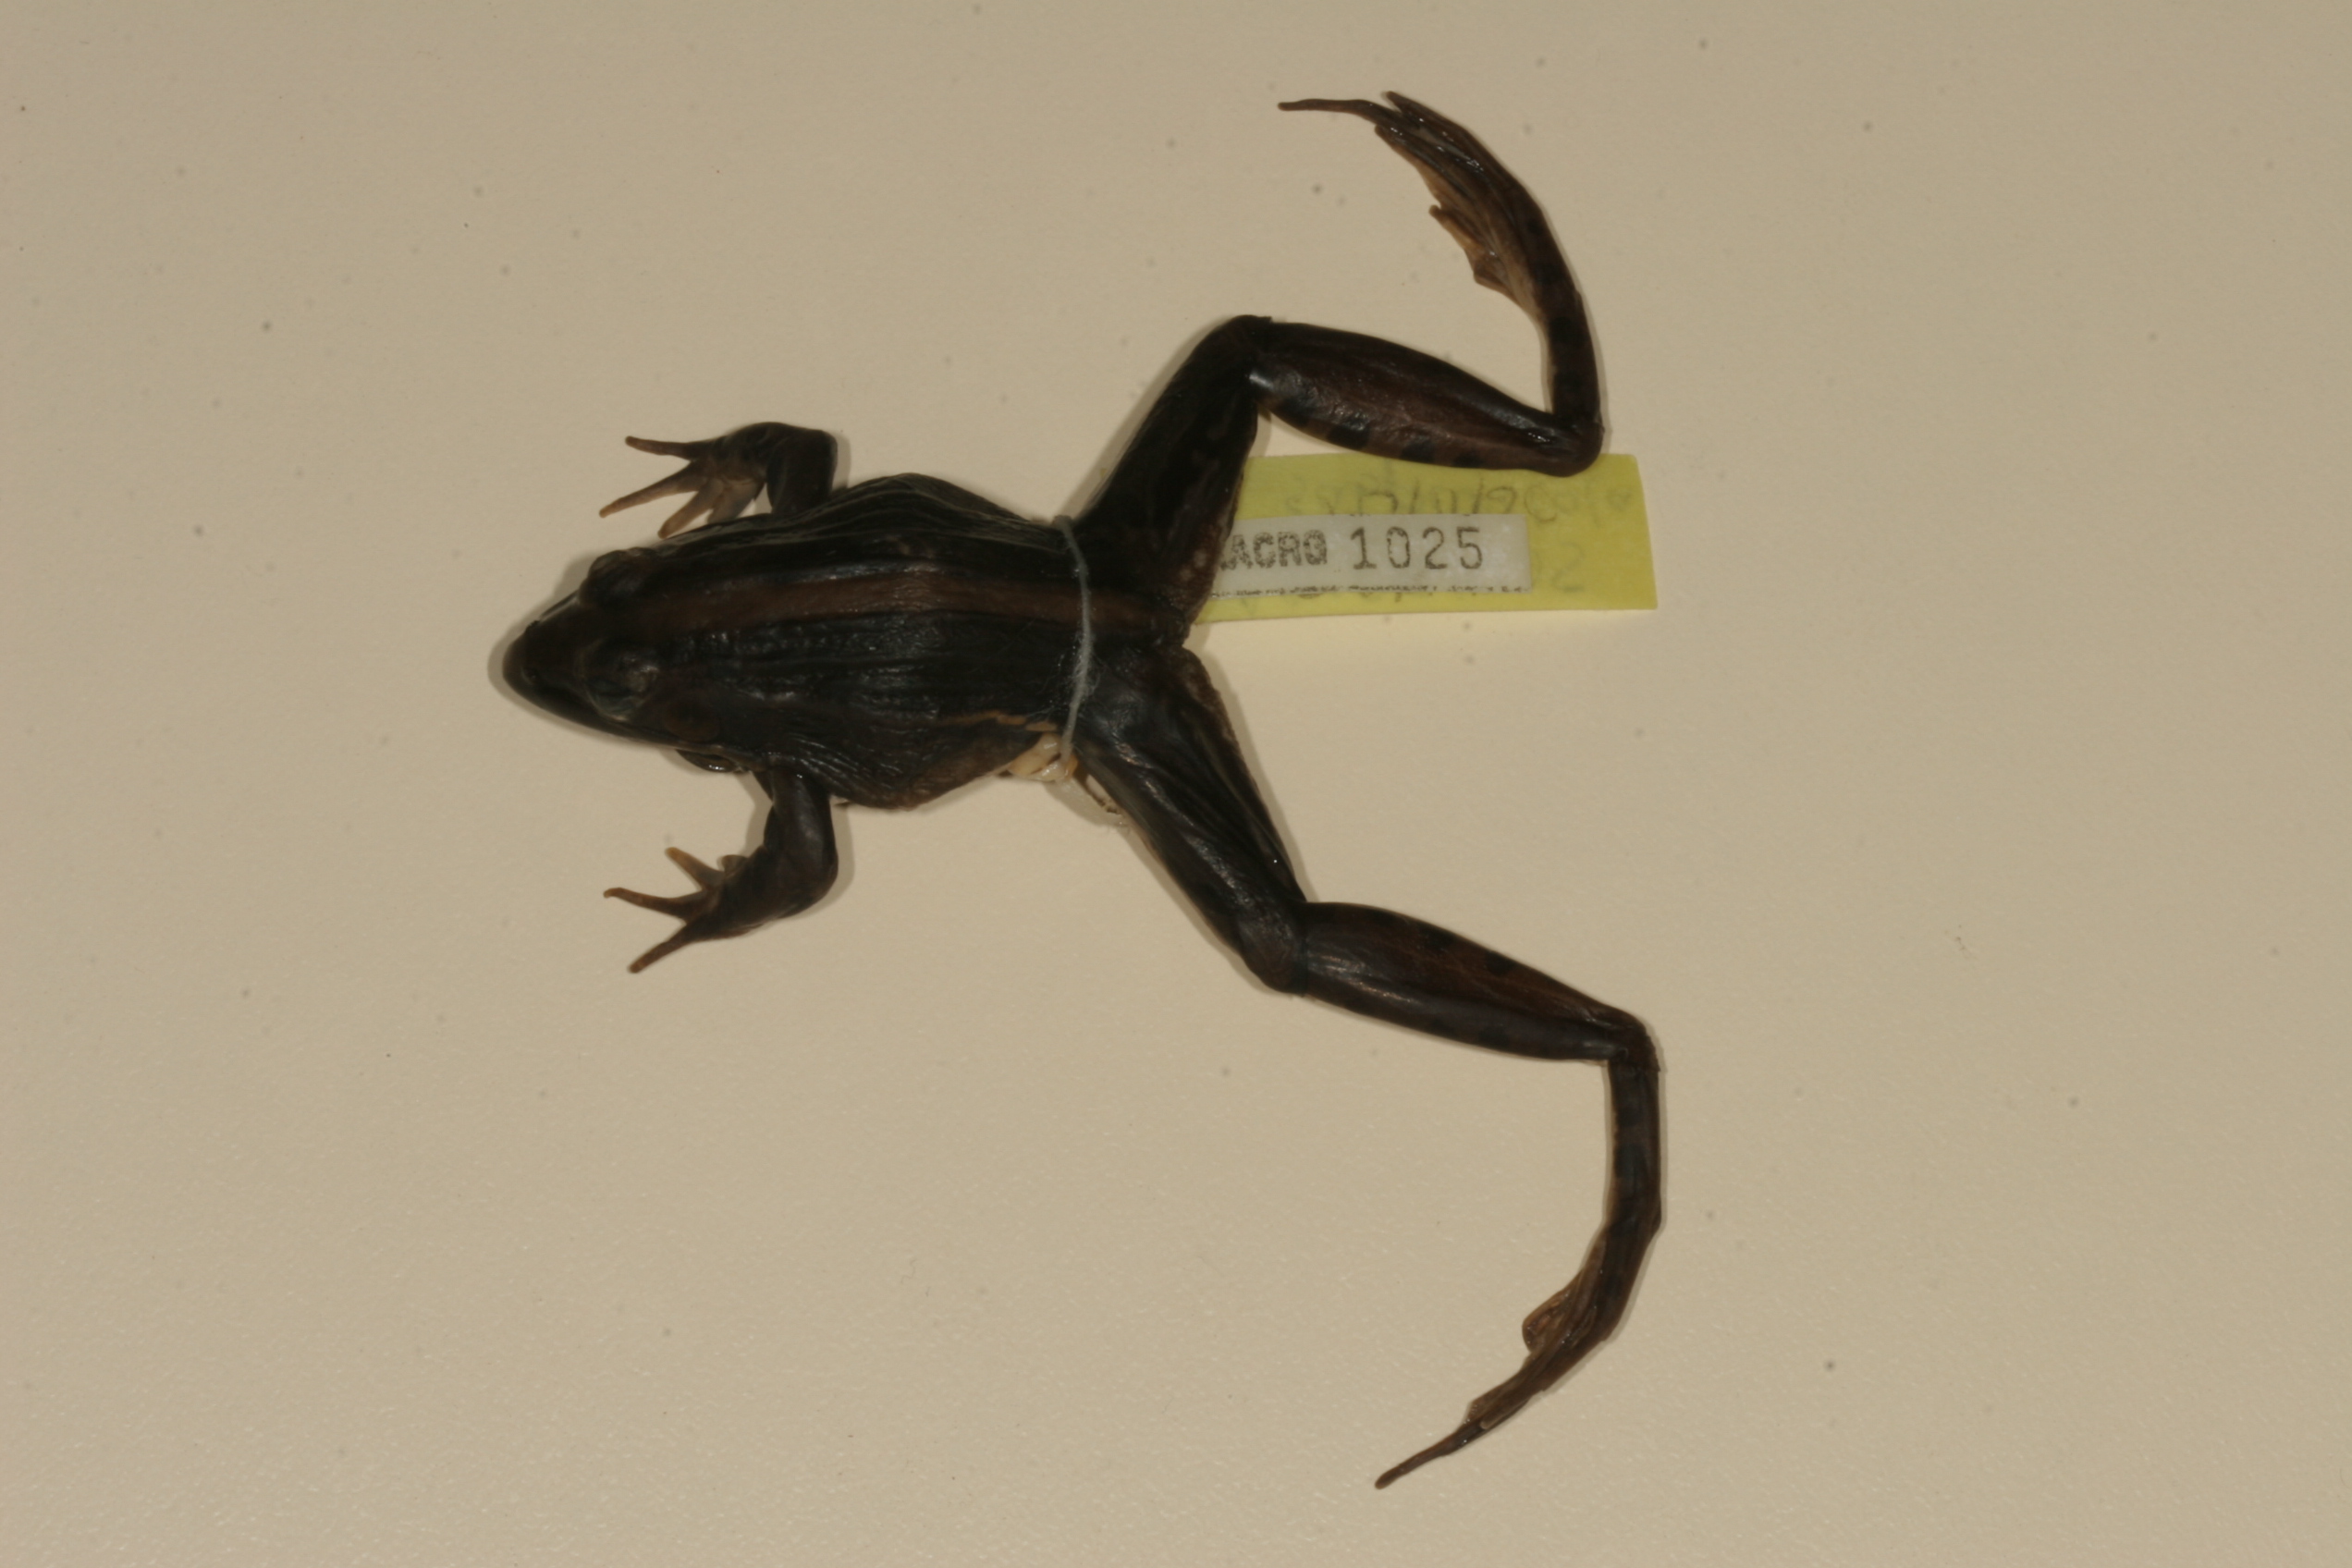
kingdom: Animalia
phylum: Chordata
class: Amphibia
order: Anura
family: Ptychadenidae
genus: Ptychadena
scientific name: Ptychadena subpunctata
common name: Bocage's grassland frog
